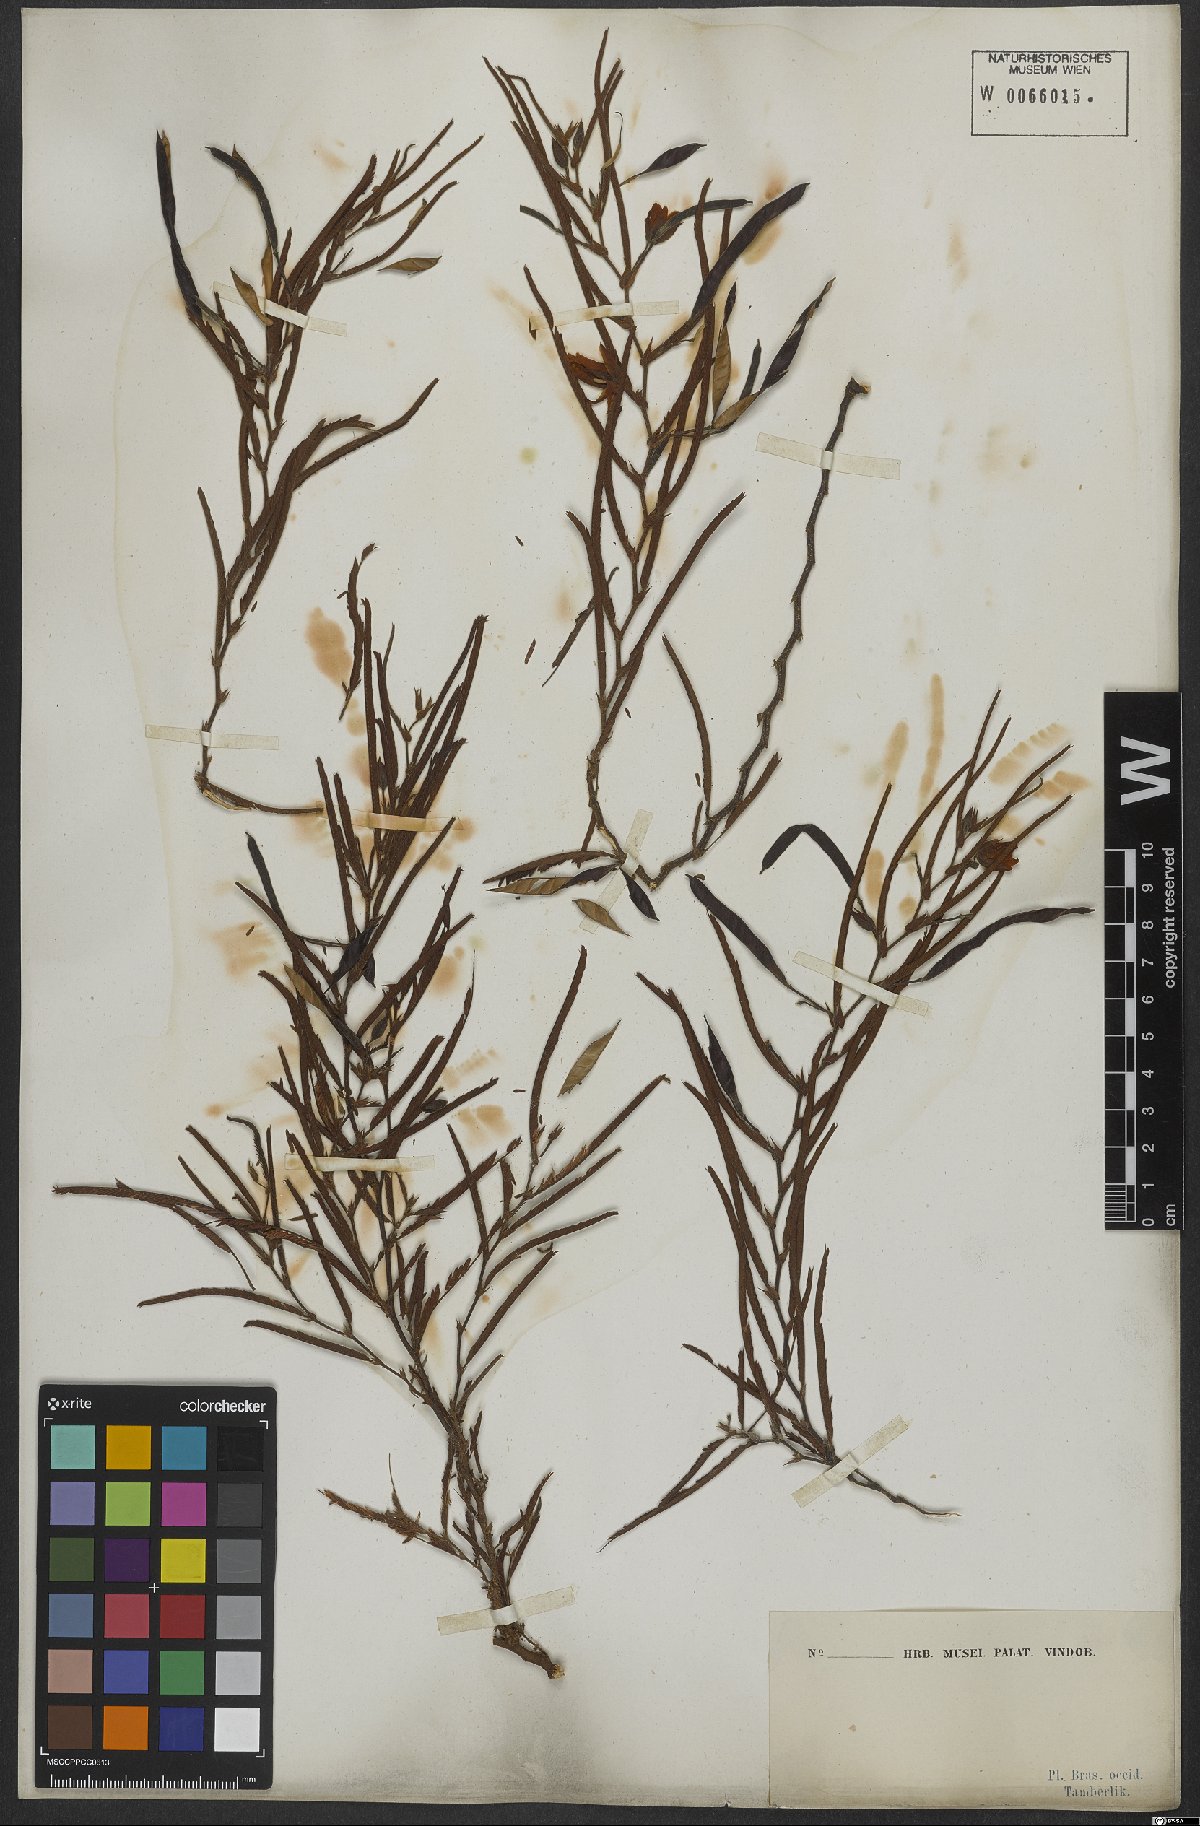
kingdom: Plantae
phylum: Tracheophyta
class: Magnoliopsida
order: Fabales
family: Fabaceae
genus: Chamaecrista
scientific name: Chamaecrista flexuosa
